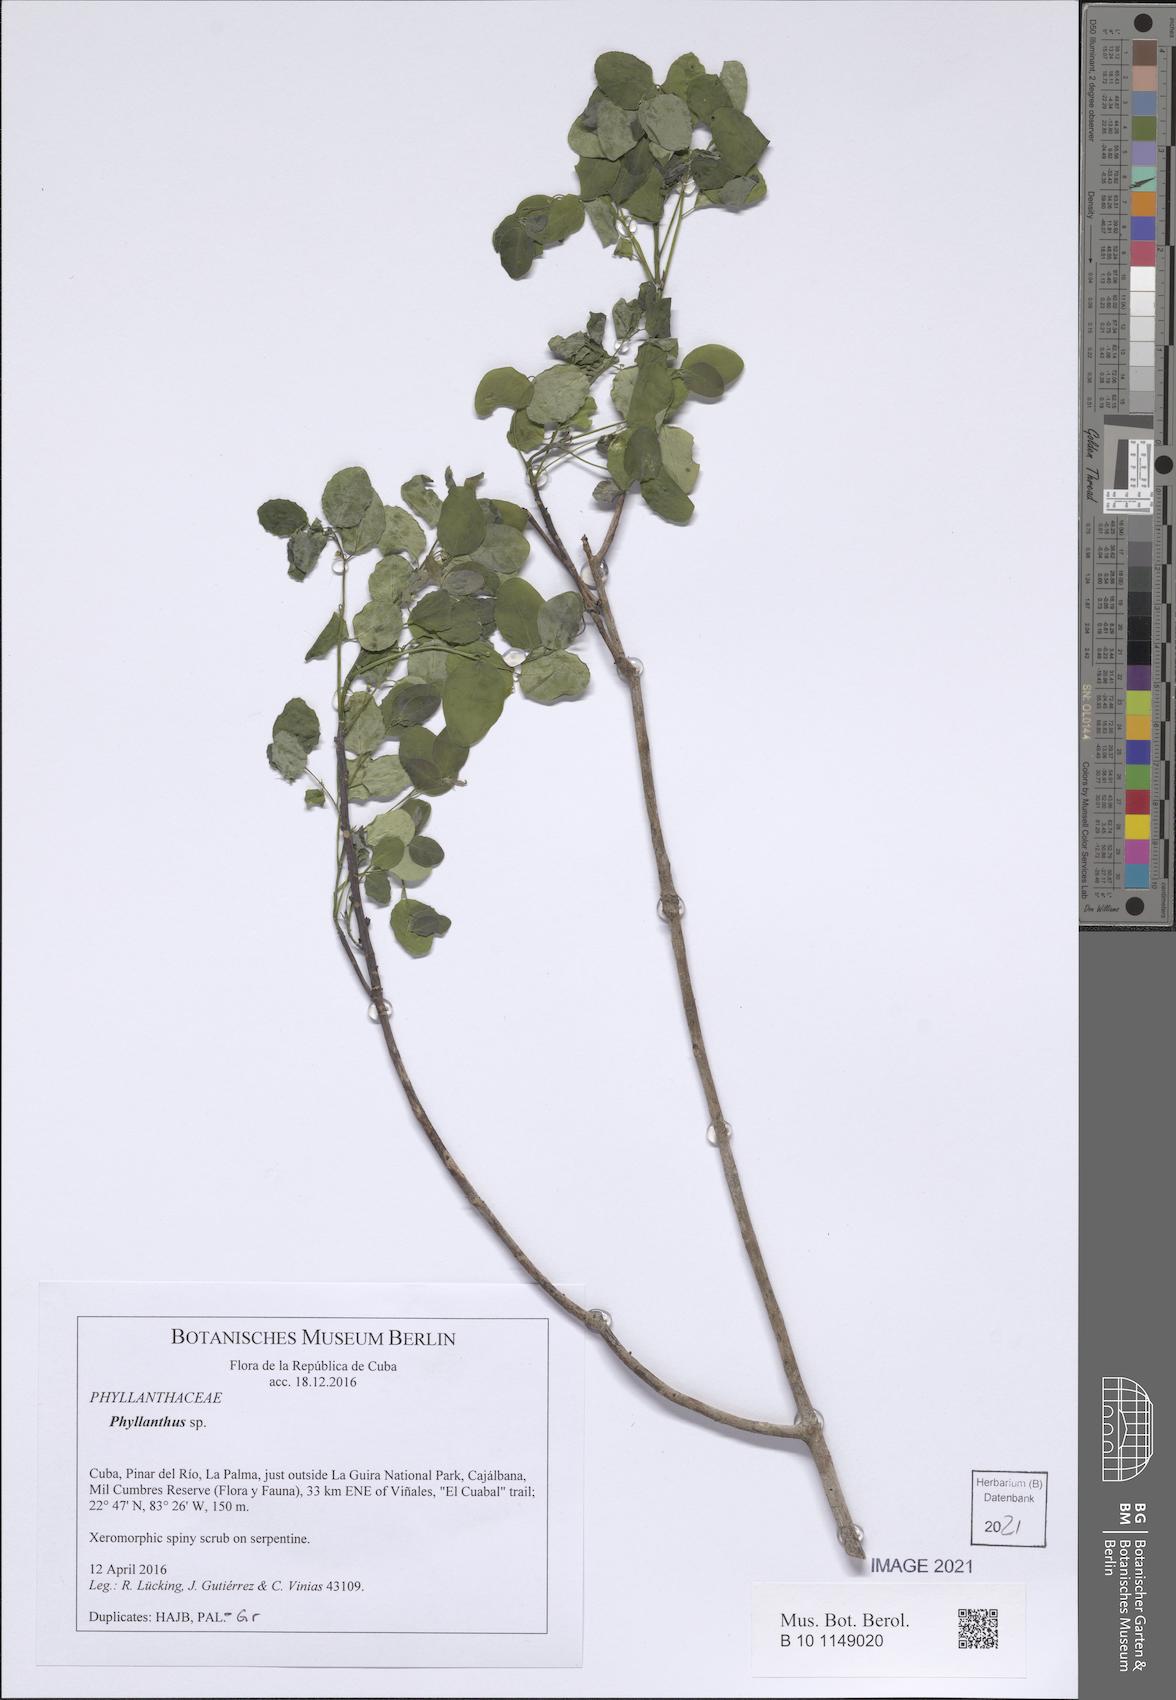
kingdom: Plantae
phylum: Tracheophyta
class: Magnoliopsida
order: Malpighiales
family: Phyllanthaceae
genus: Phyllanthus
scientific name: Phyllanthus
